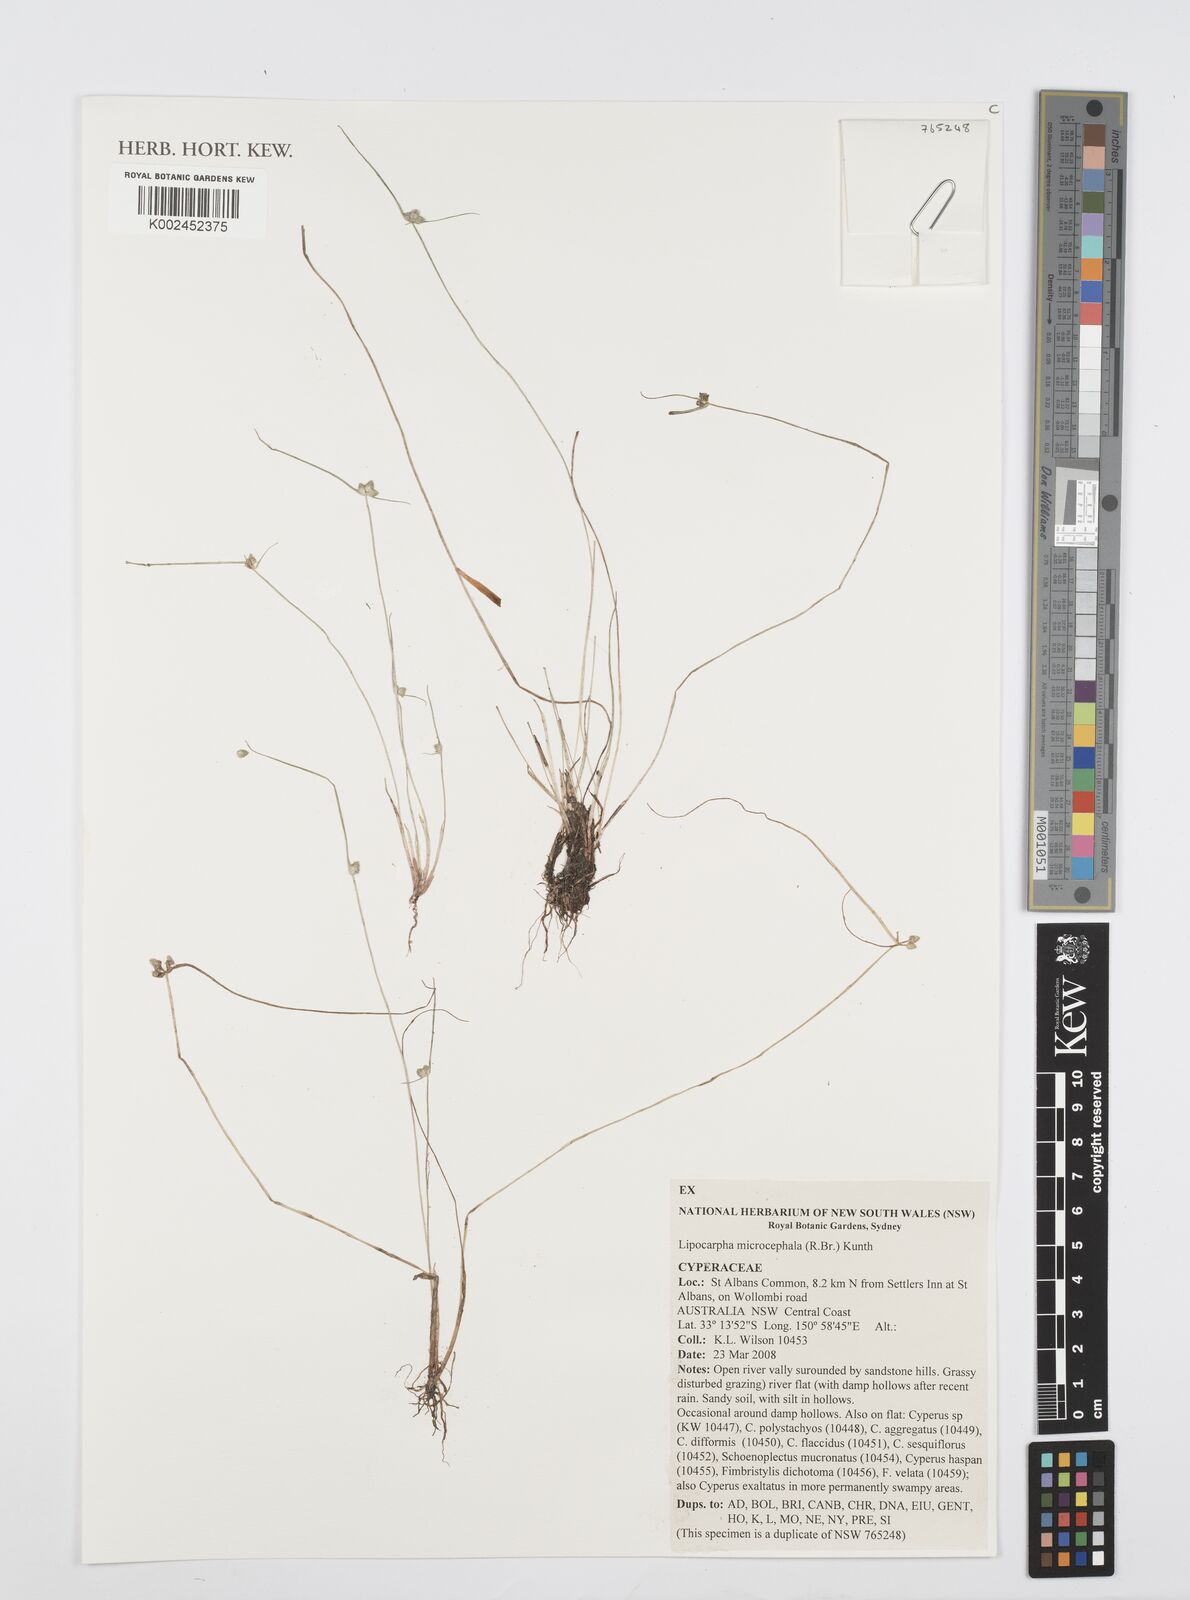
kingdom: Plantae
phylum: Tracheophyta
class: Liliopsida
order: Poales
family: Cyperaceae
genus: Cyperus
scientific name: Cyperus microcephalus
